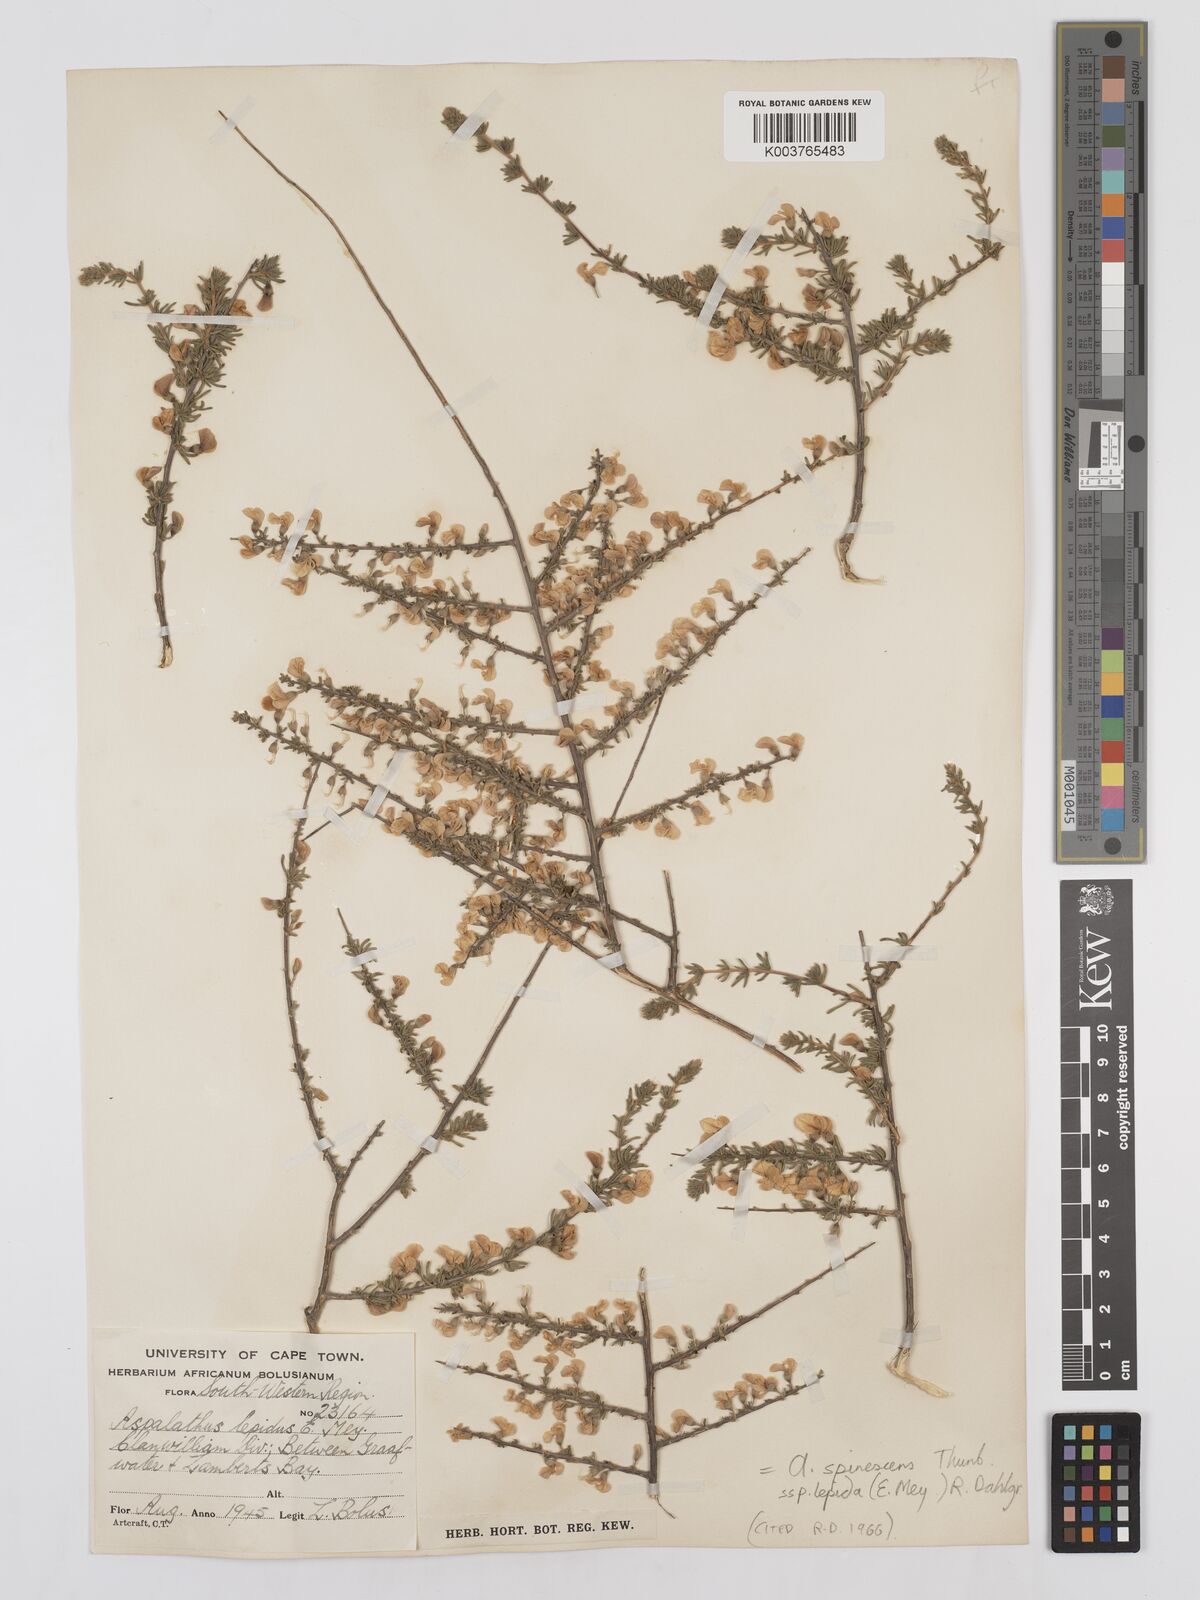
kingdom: Plantae
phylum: Tracheophyta
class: Magnoliopsida
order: Fabales
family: Fabaceae
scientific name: Fabaceae
